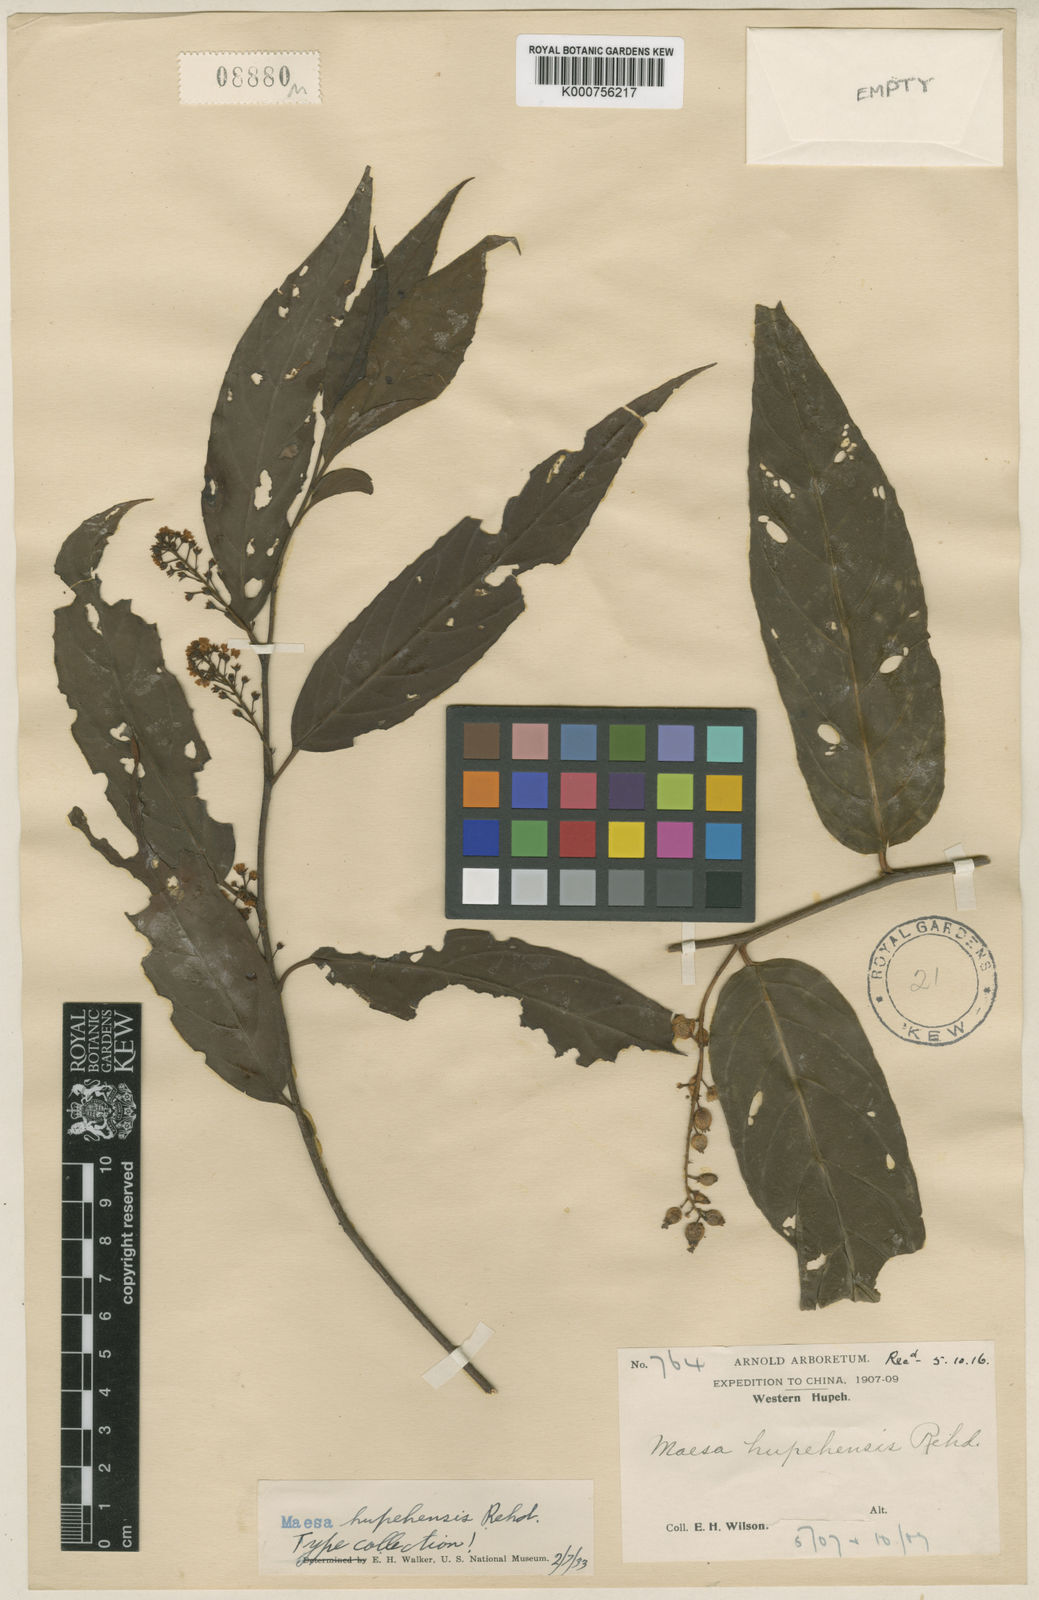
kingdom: Plantae
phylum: Tracheophyta
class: Magnoliopsida
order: Ericales
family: Primulaceae
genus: Maesa
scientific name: Maesa hupehensis
